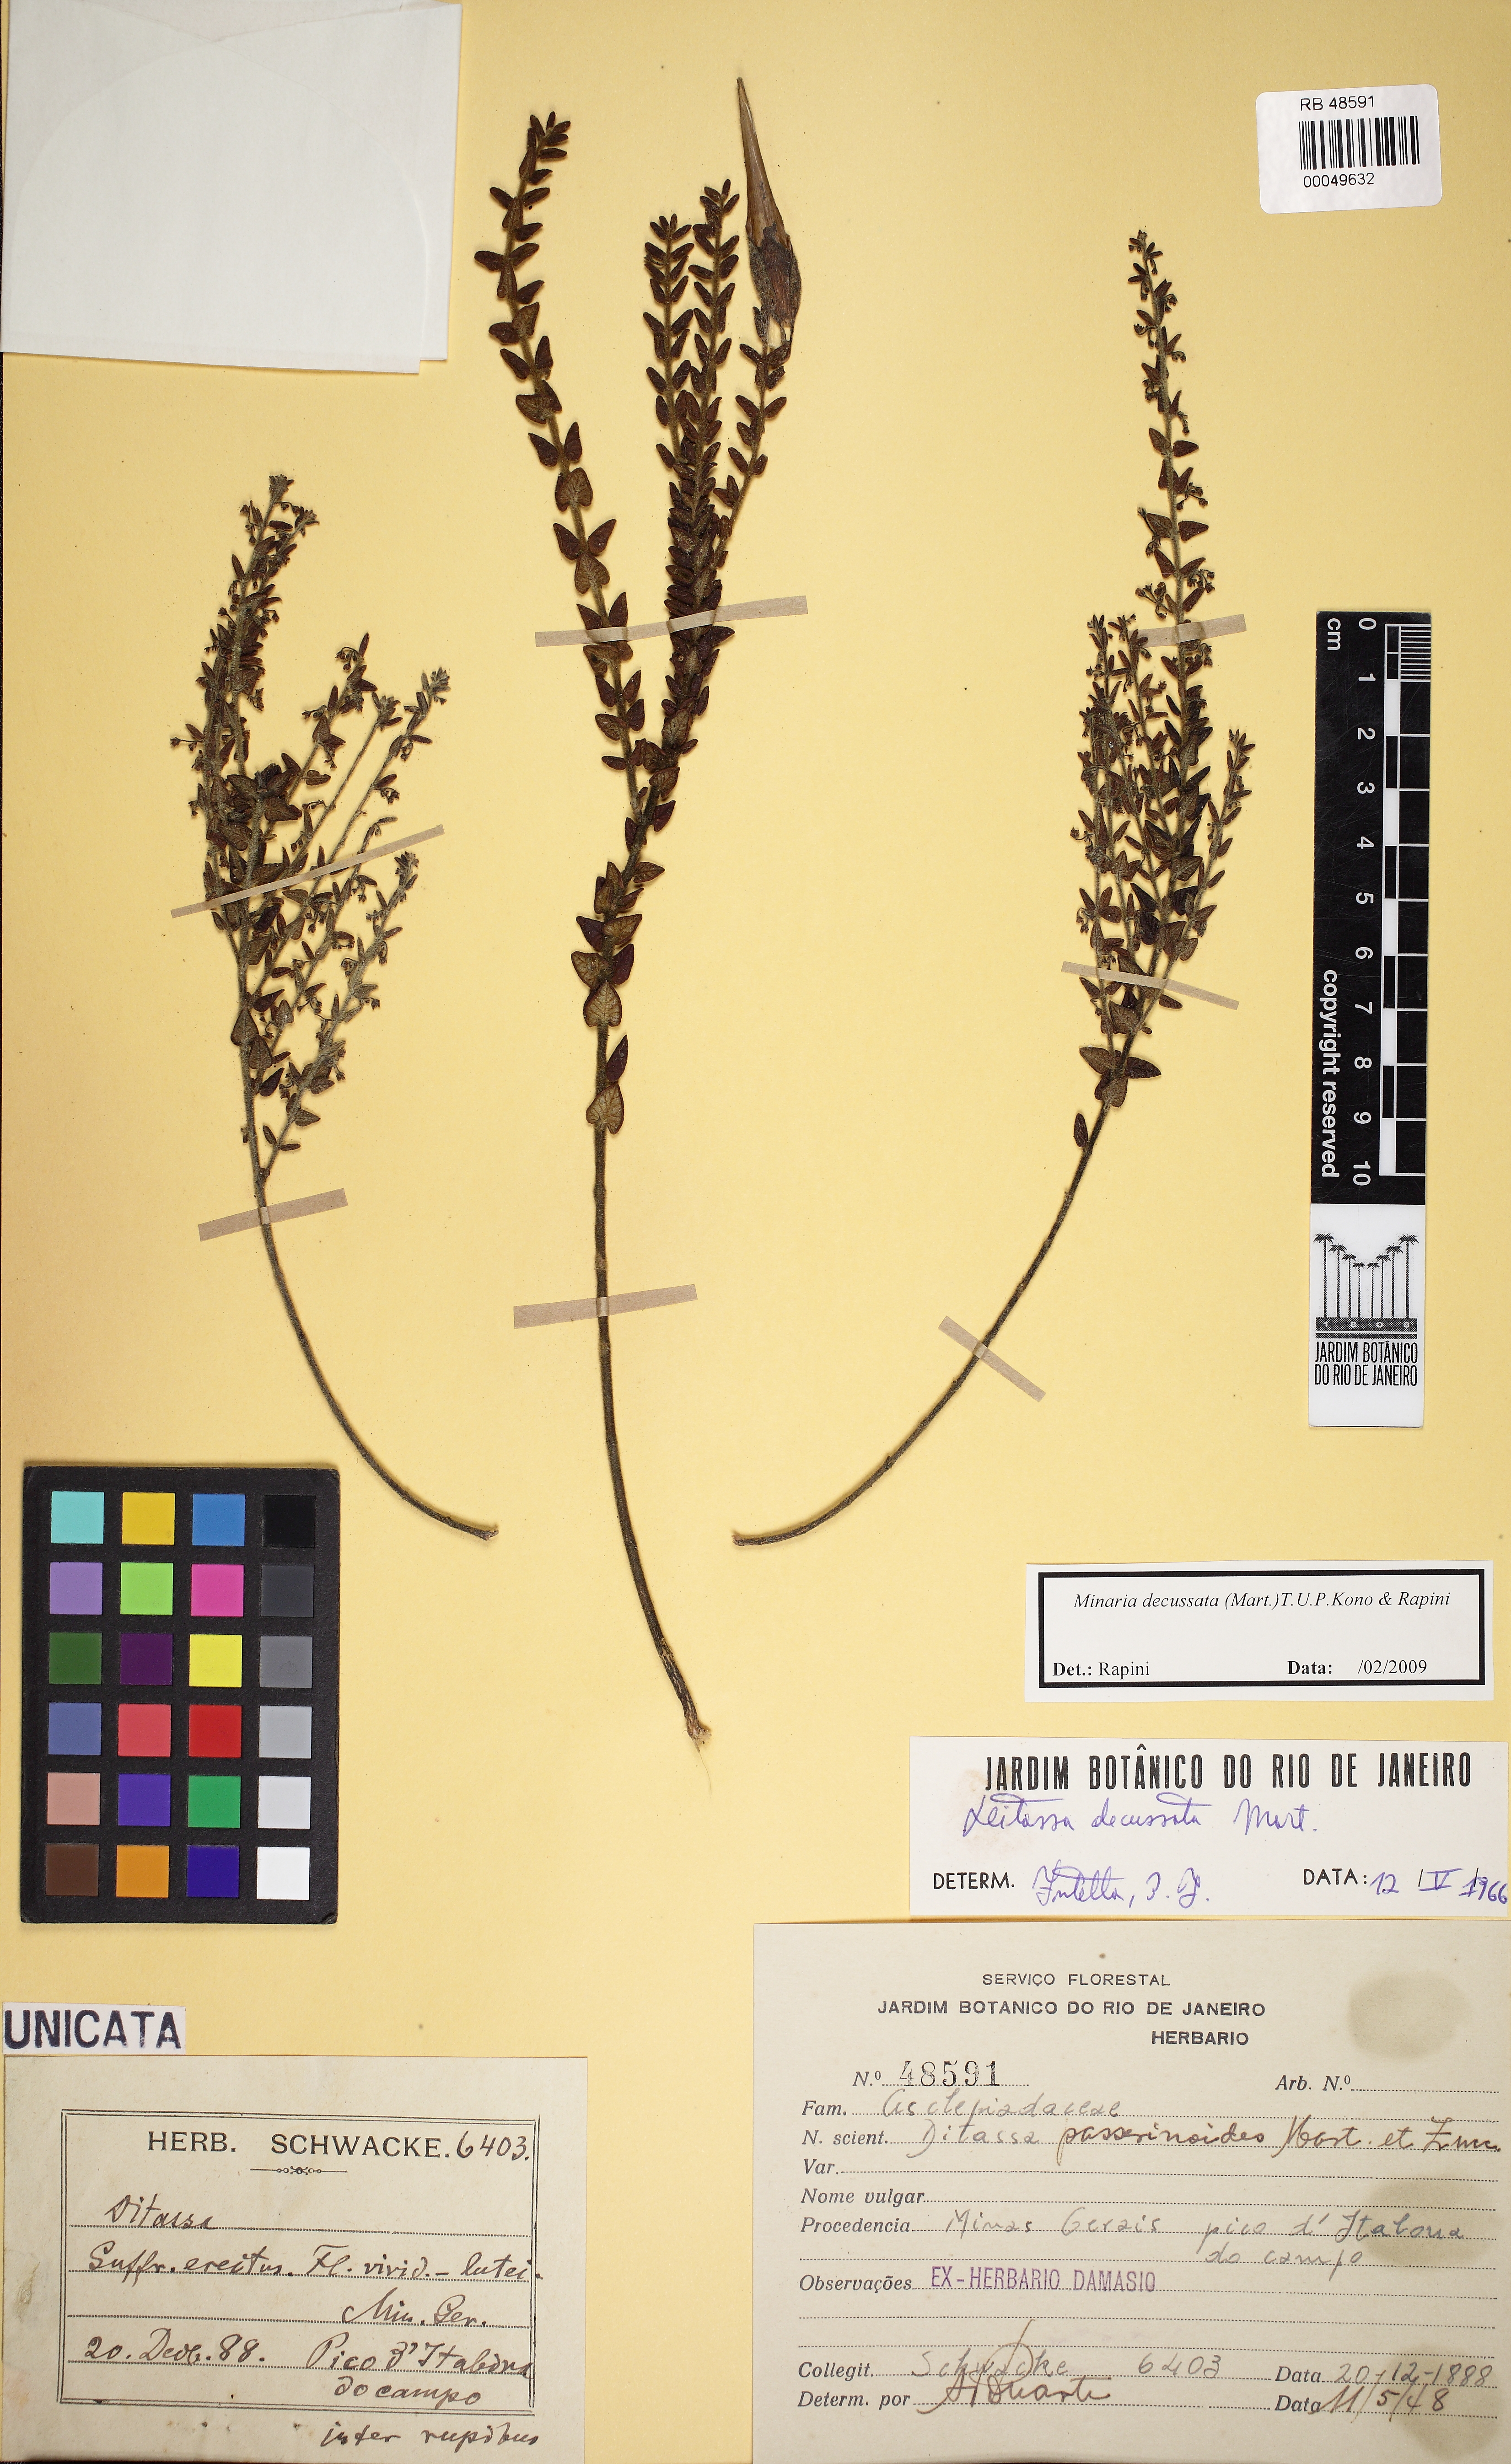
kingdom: Plantae
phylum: Tracheophyta
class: Magnoliopsida
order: Gentianales
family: Apocynaceae
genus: Minaria
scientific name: Minaria decussata
